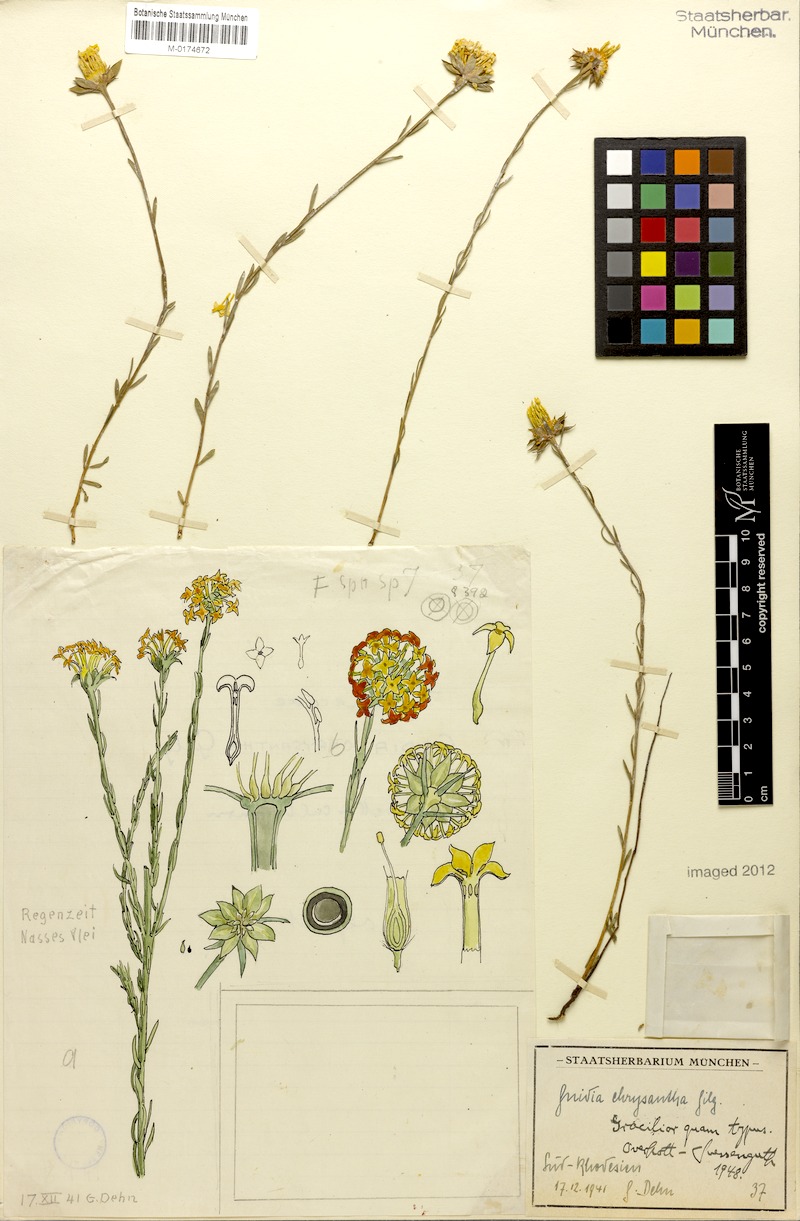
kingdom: Plantae
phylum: Tracheophyta
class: Magnoliopsida
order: Malvales
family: Thymelaeaceae
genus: Gnidia
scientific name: Gnidia chrysantha
